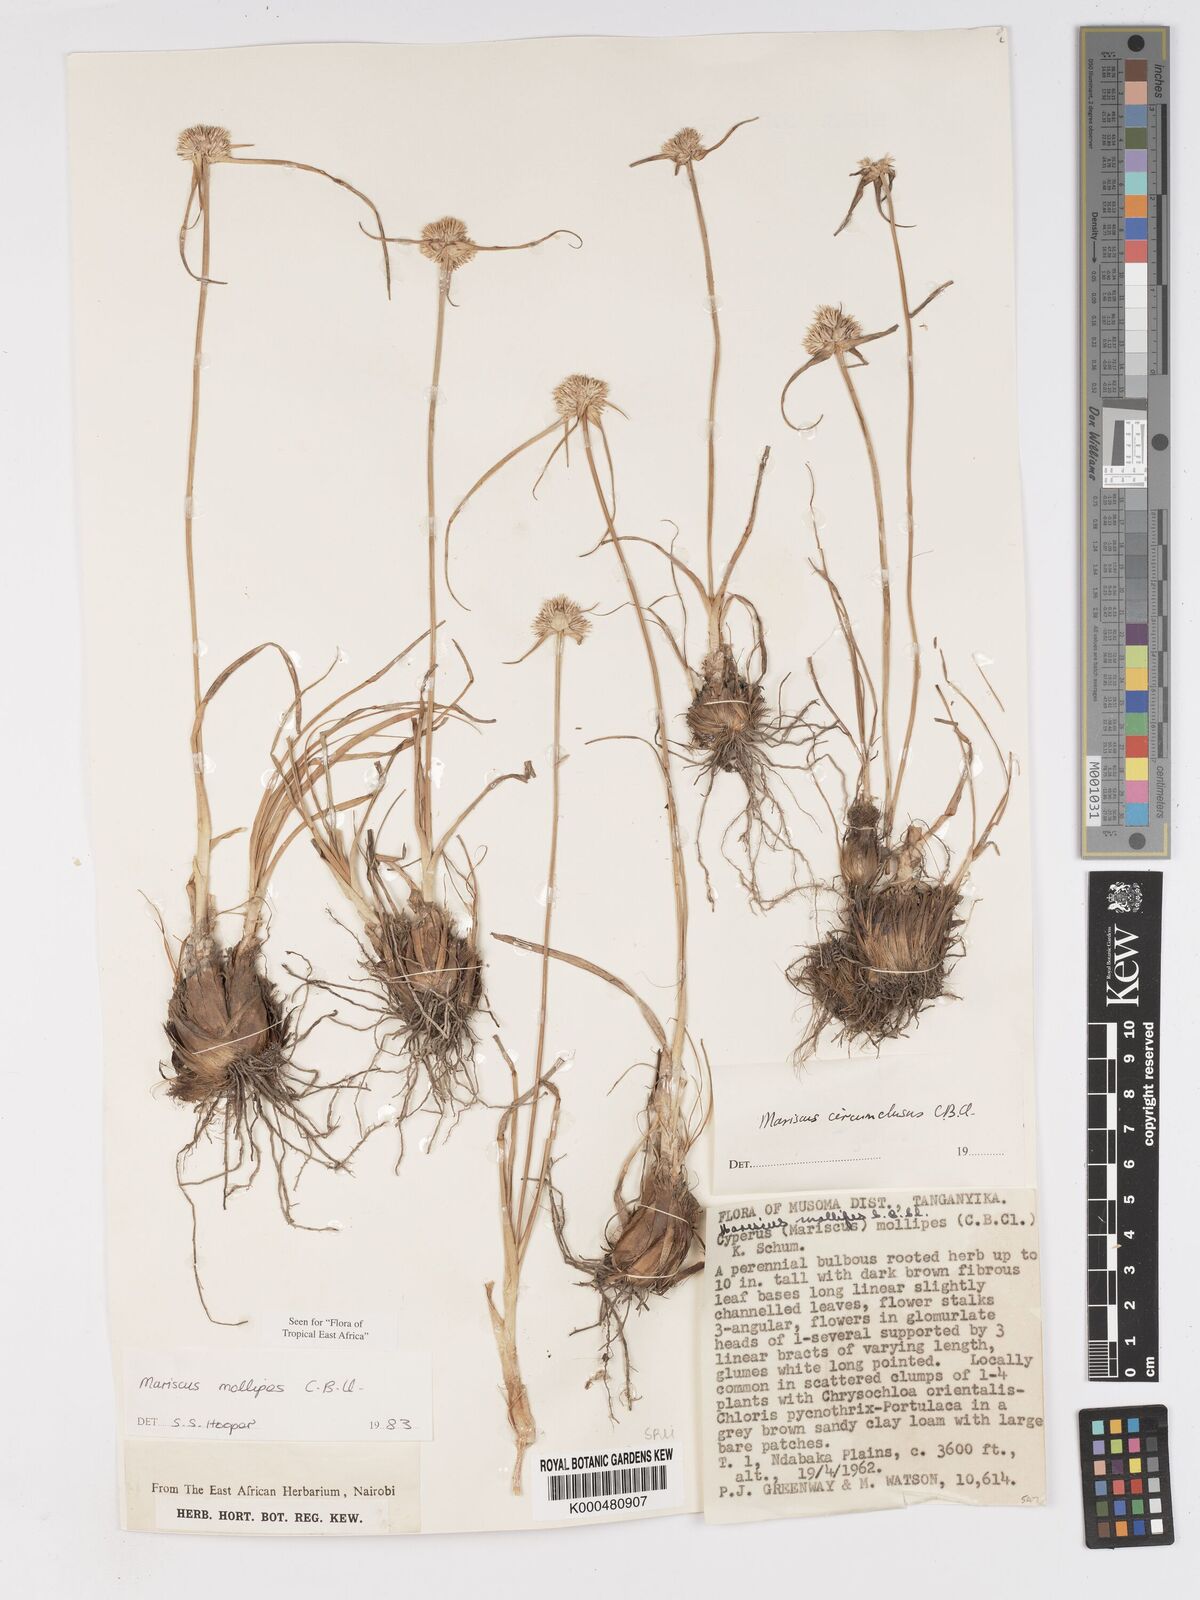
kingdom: Plantae
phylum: Tracheophyta
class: Liliopsida
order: Poales
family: Cyperaceae
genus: Cyperus
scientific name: Cyperus mollipes
